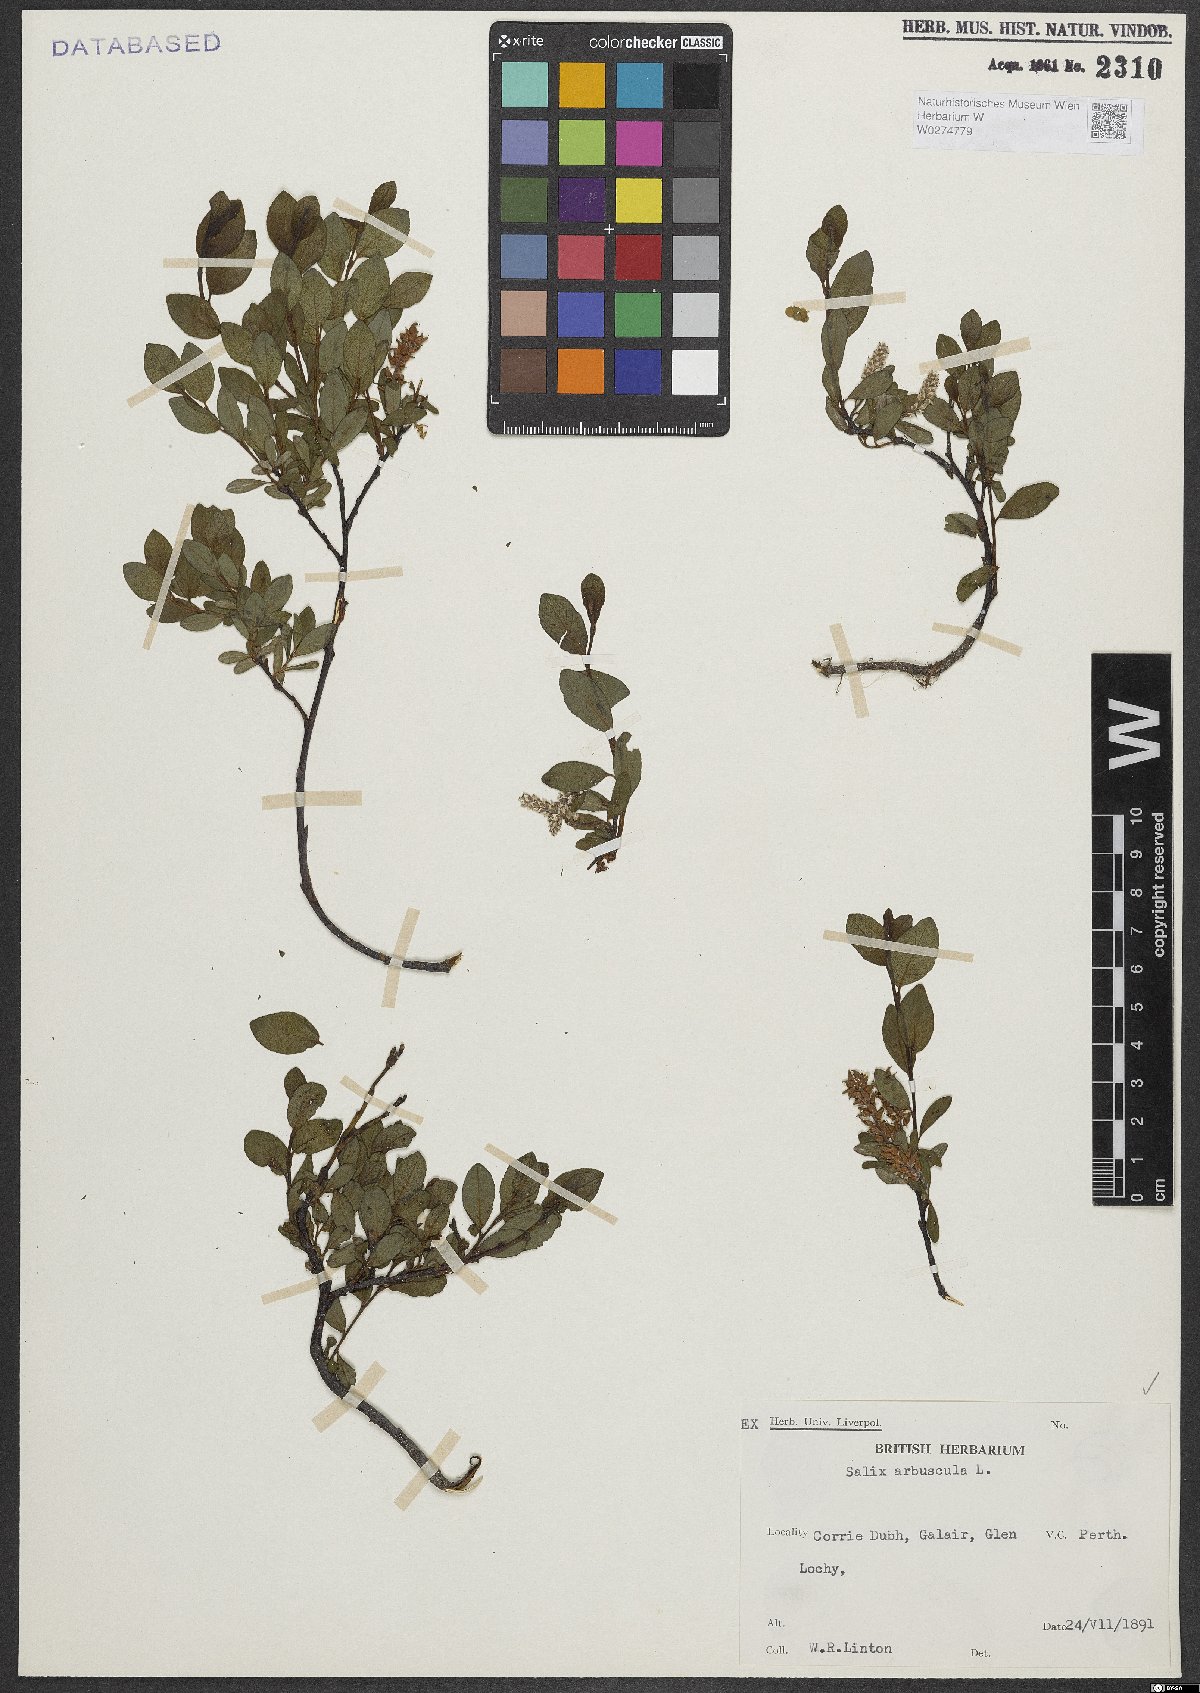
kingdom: Plantae
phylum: Tracheophyta
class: Magnoliopsida
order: Malpighiales
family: Salicaceae
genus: Salix
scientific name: Salix arbuscula
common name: Mountain willow
